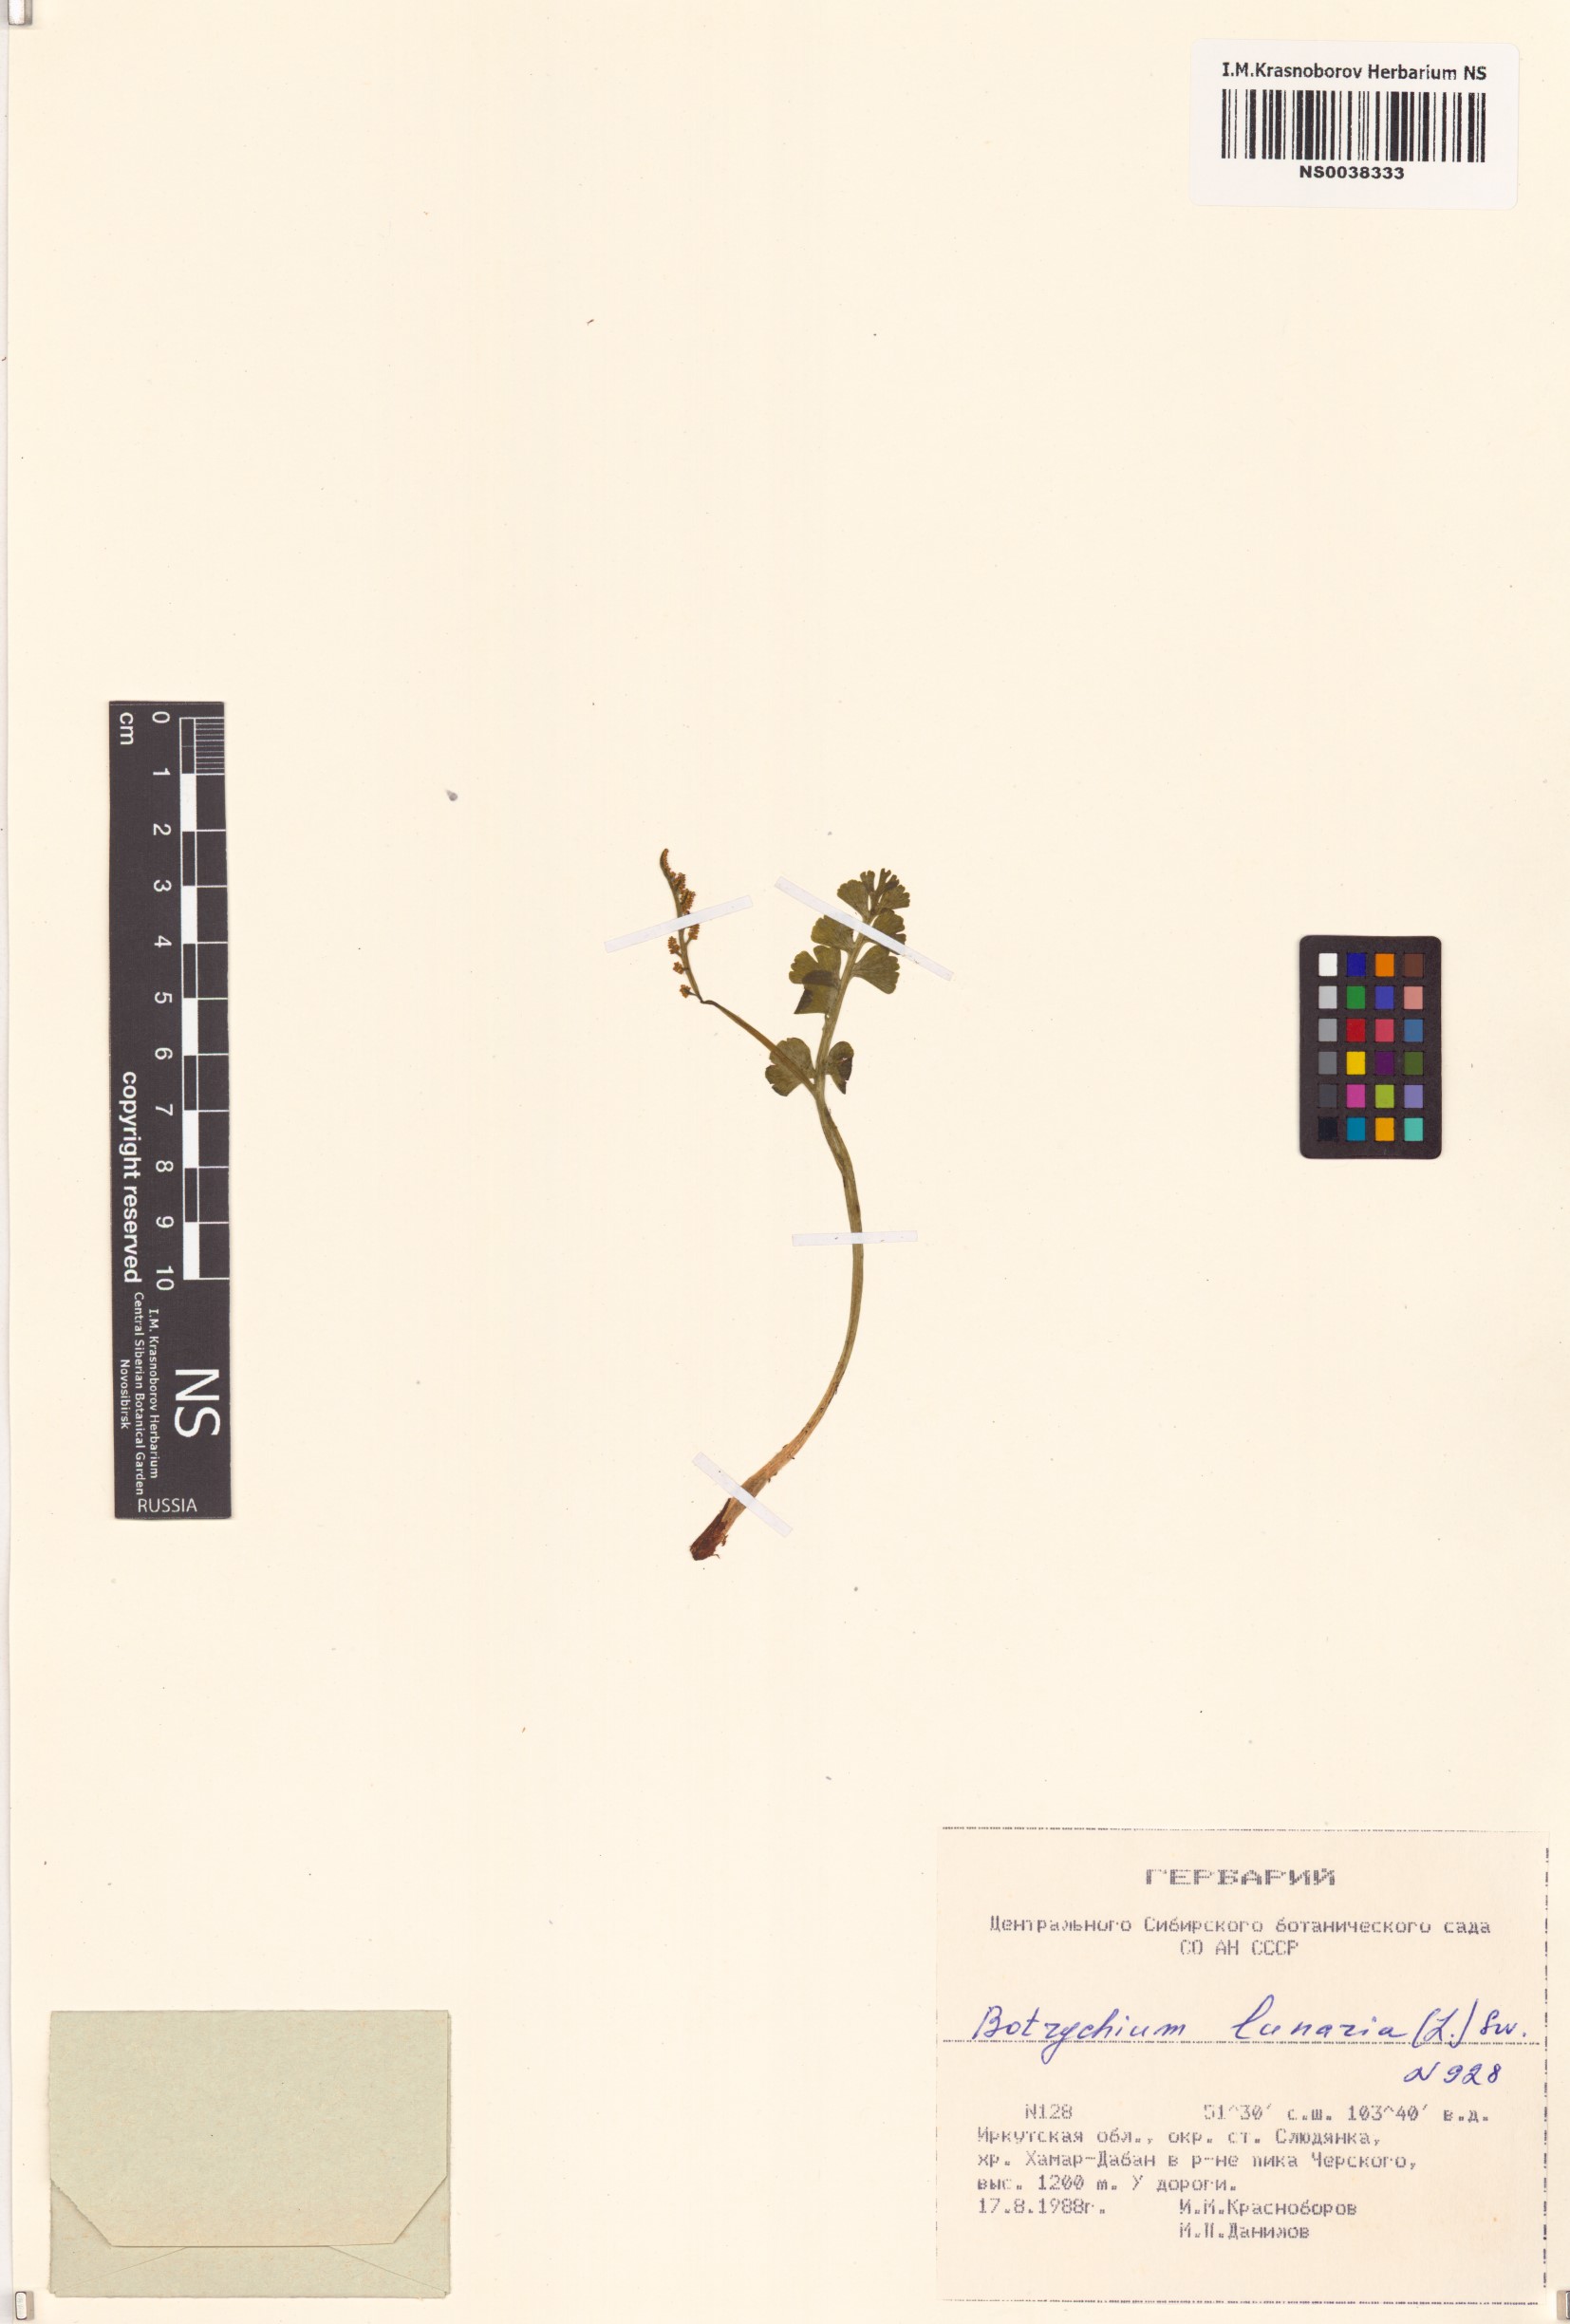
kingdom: Plantae
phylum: Tracheophyta
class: Polypodiopsida
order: Ophioglossales
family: Ophioglossaceae
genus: Botrychium
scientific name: Botrychium lunaria
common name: Moonwort
